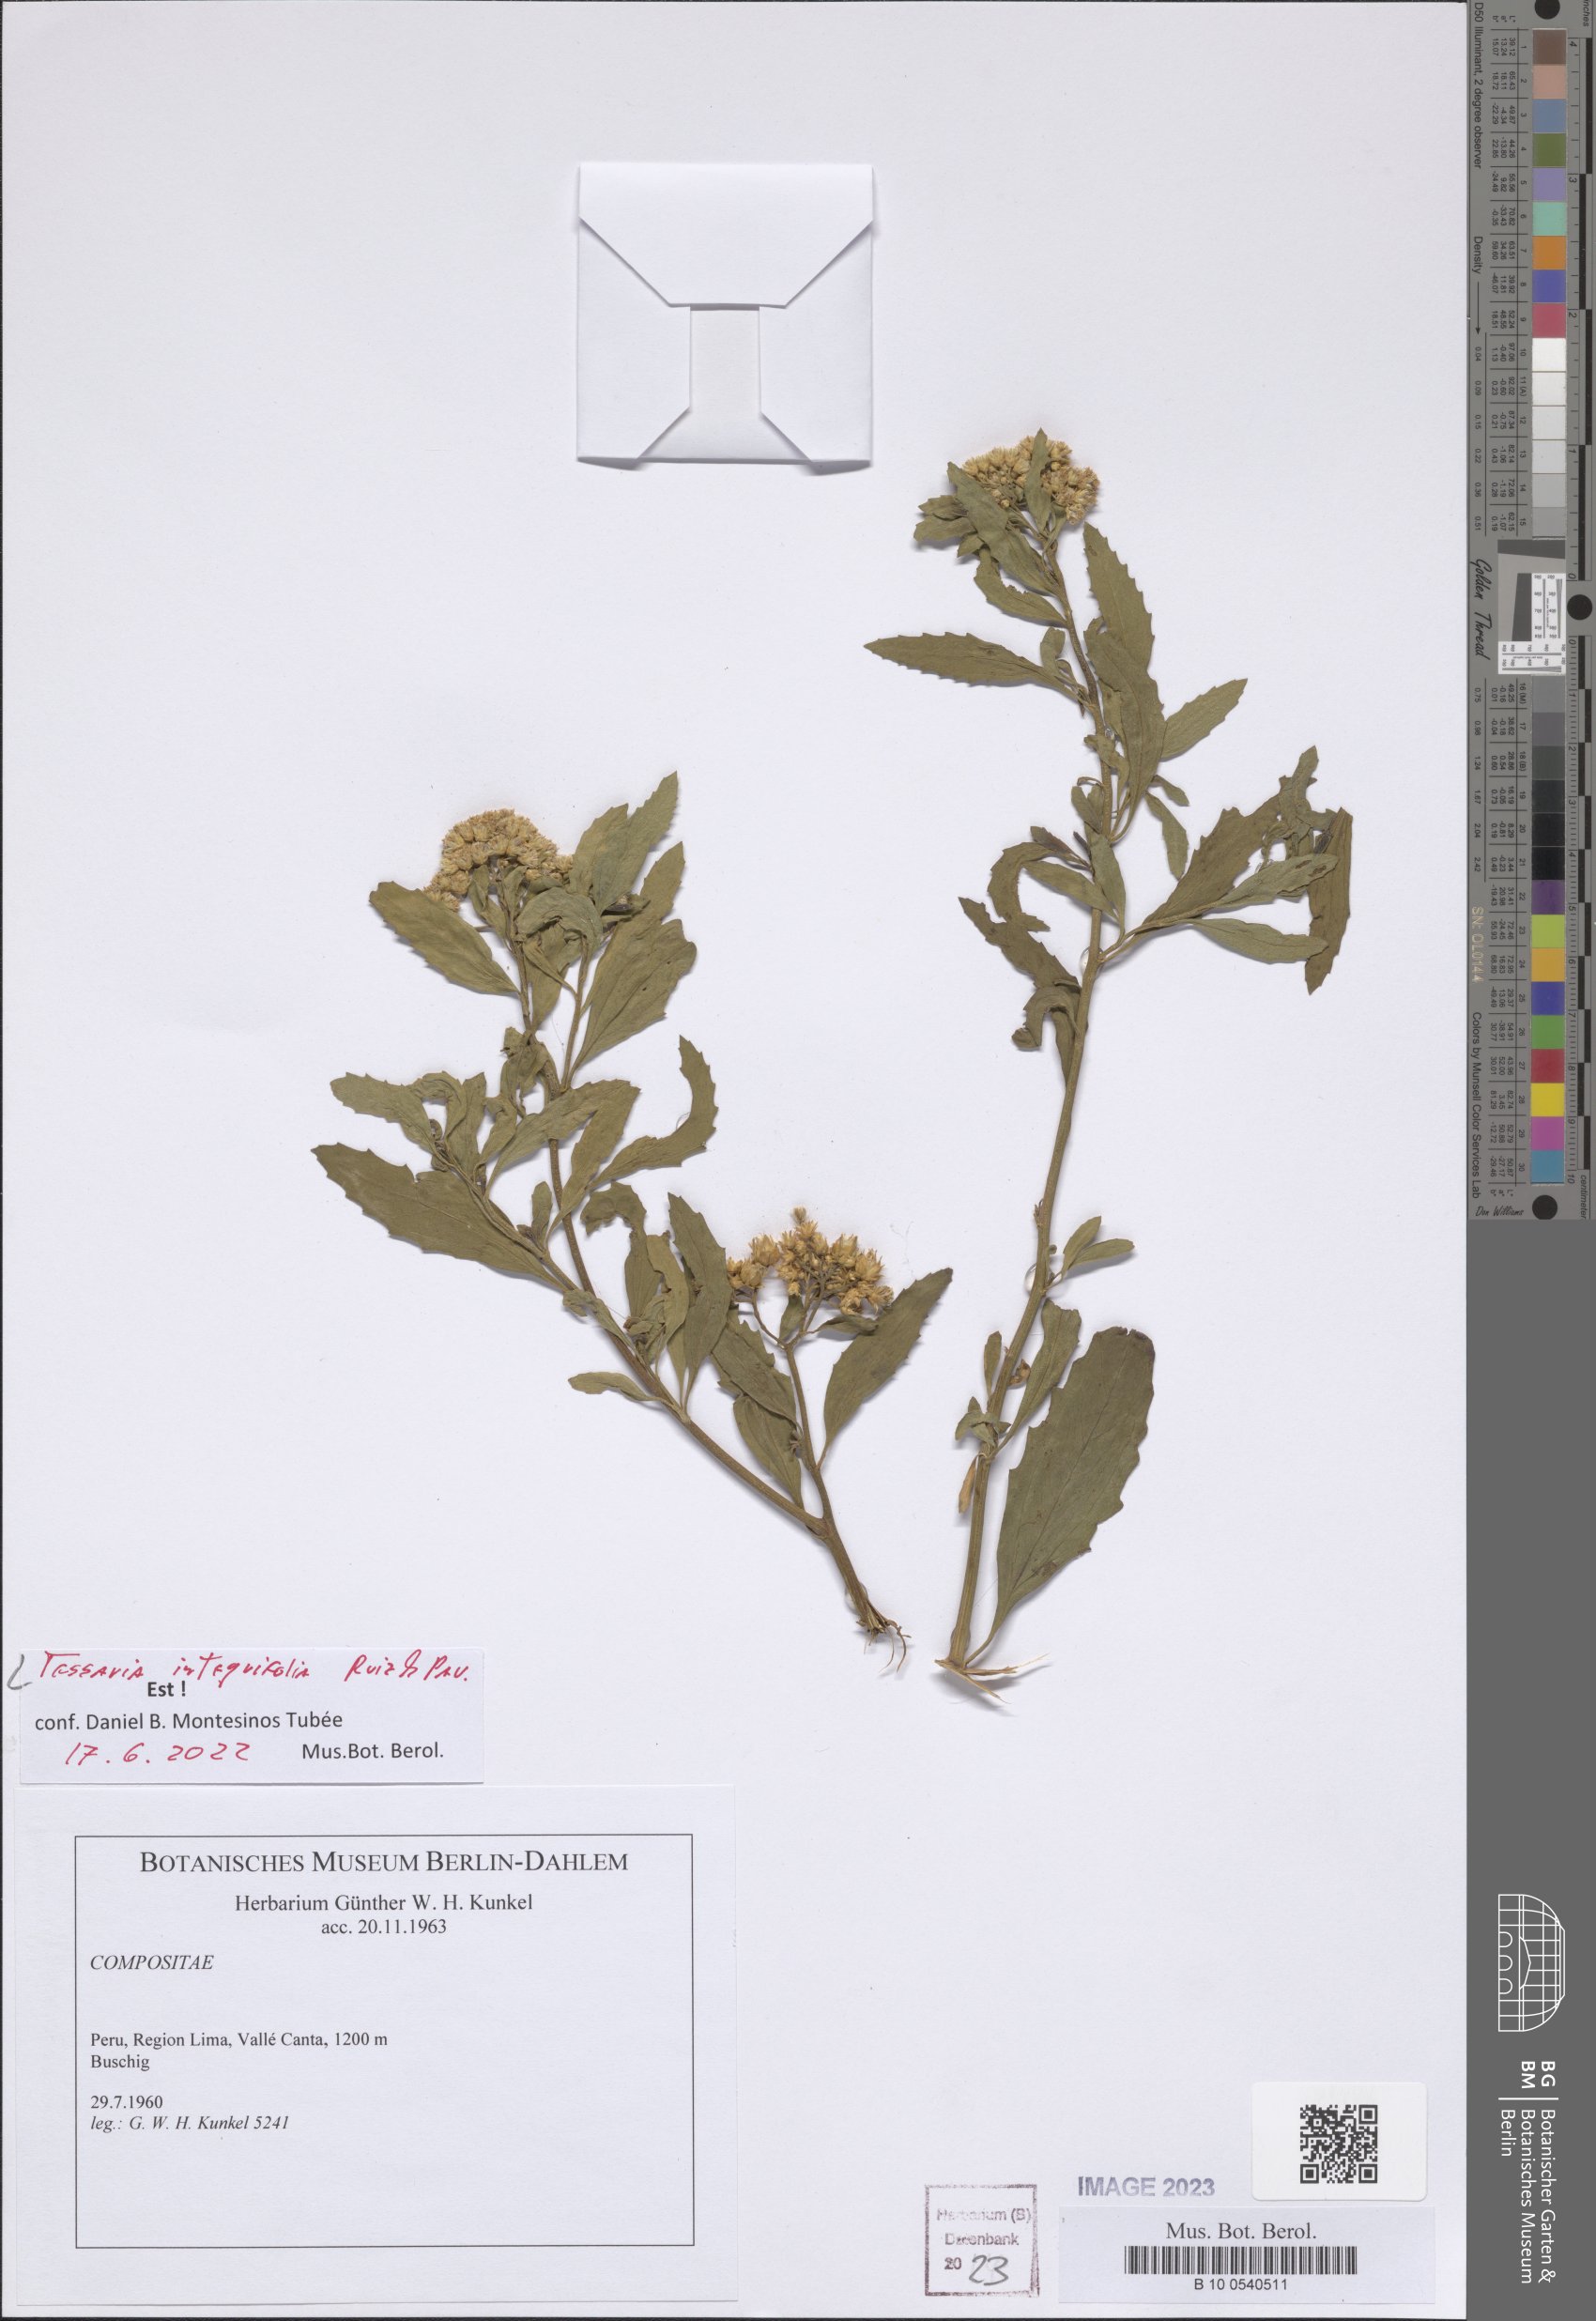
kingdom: Plantae
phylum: Tracheophyta
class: Magnoliopsida
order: Asterales
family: Asteraceae
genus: Tessaria
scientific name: Tessaria integrifolia
